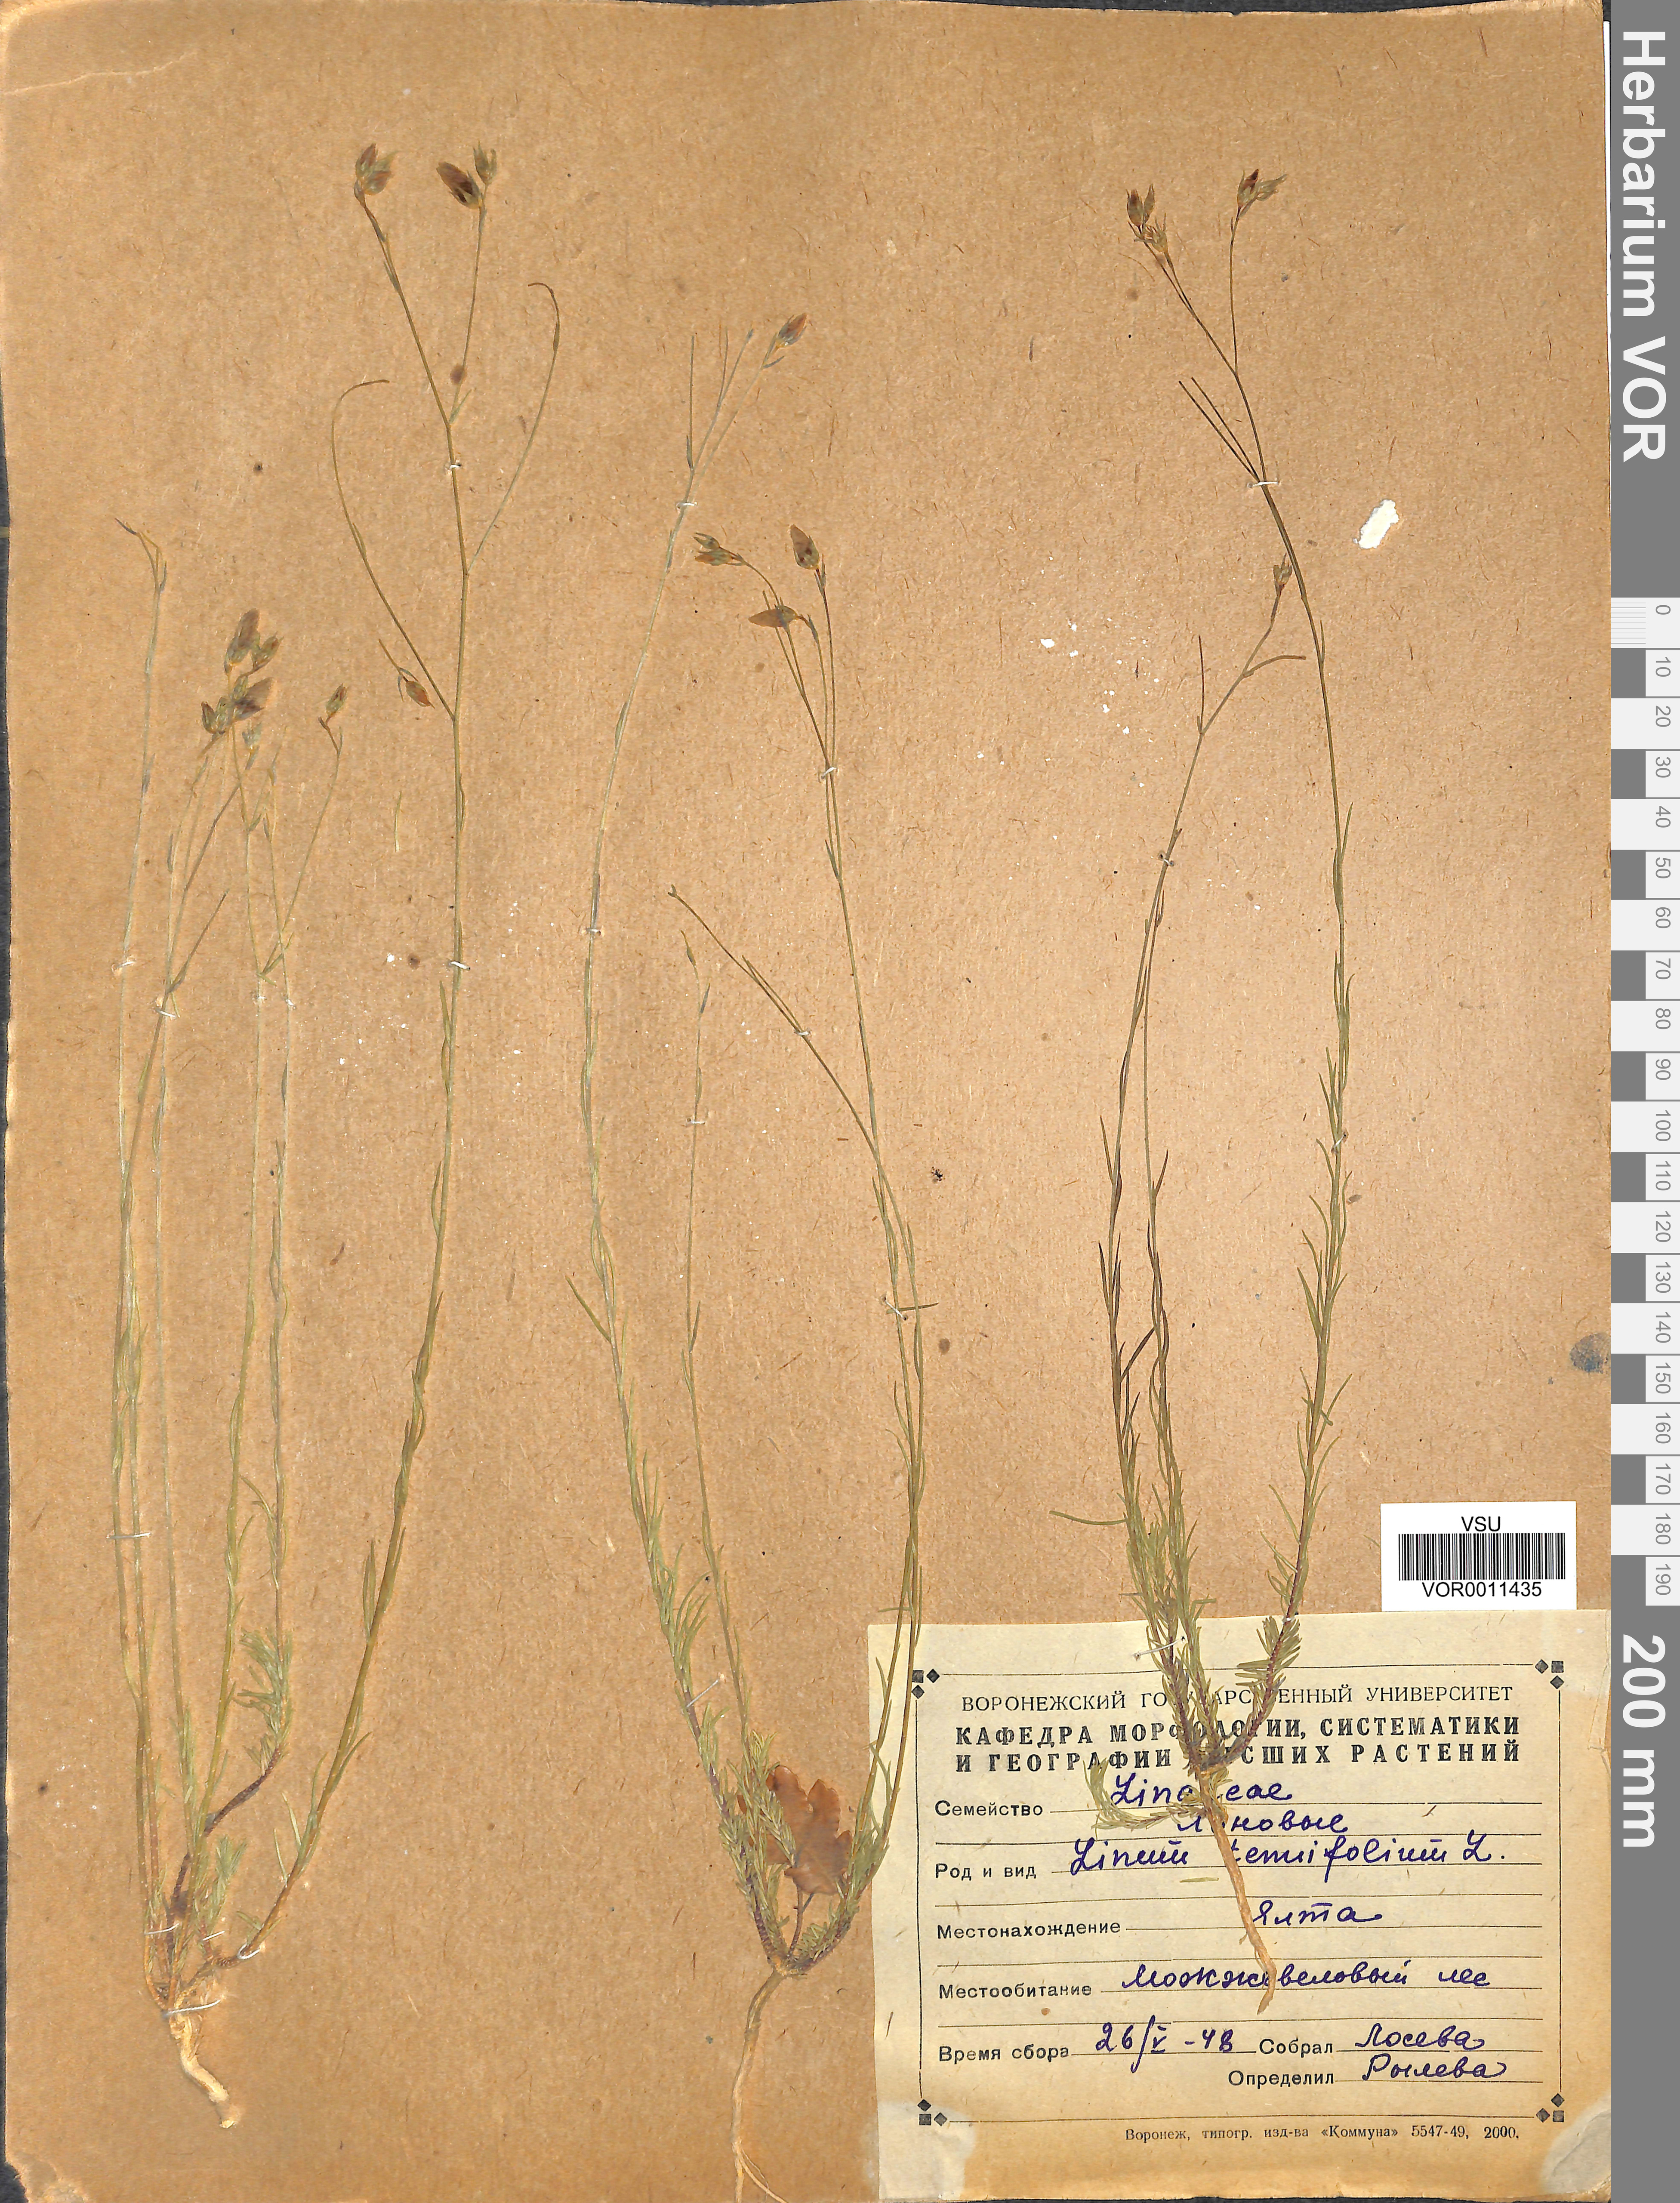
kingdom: Plantae
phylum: Tracheophyta
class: Magnoliopsida
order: Malpighiales
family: Linaceae
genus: Linum
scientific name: Linum tenuifolium
